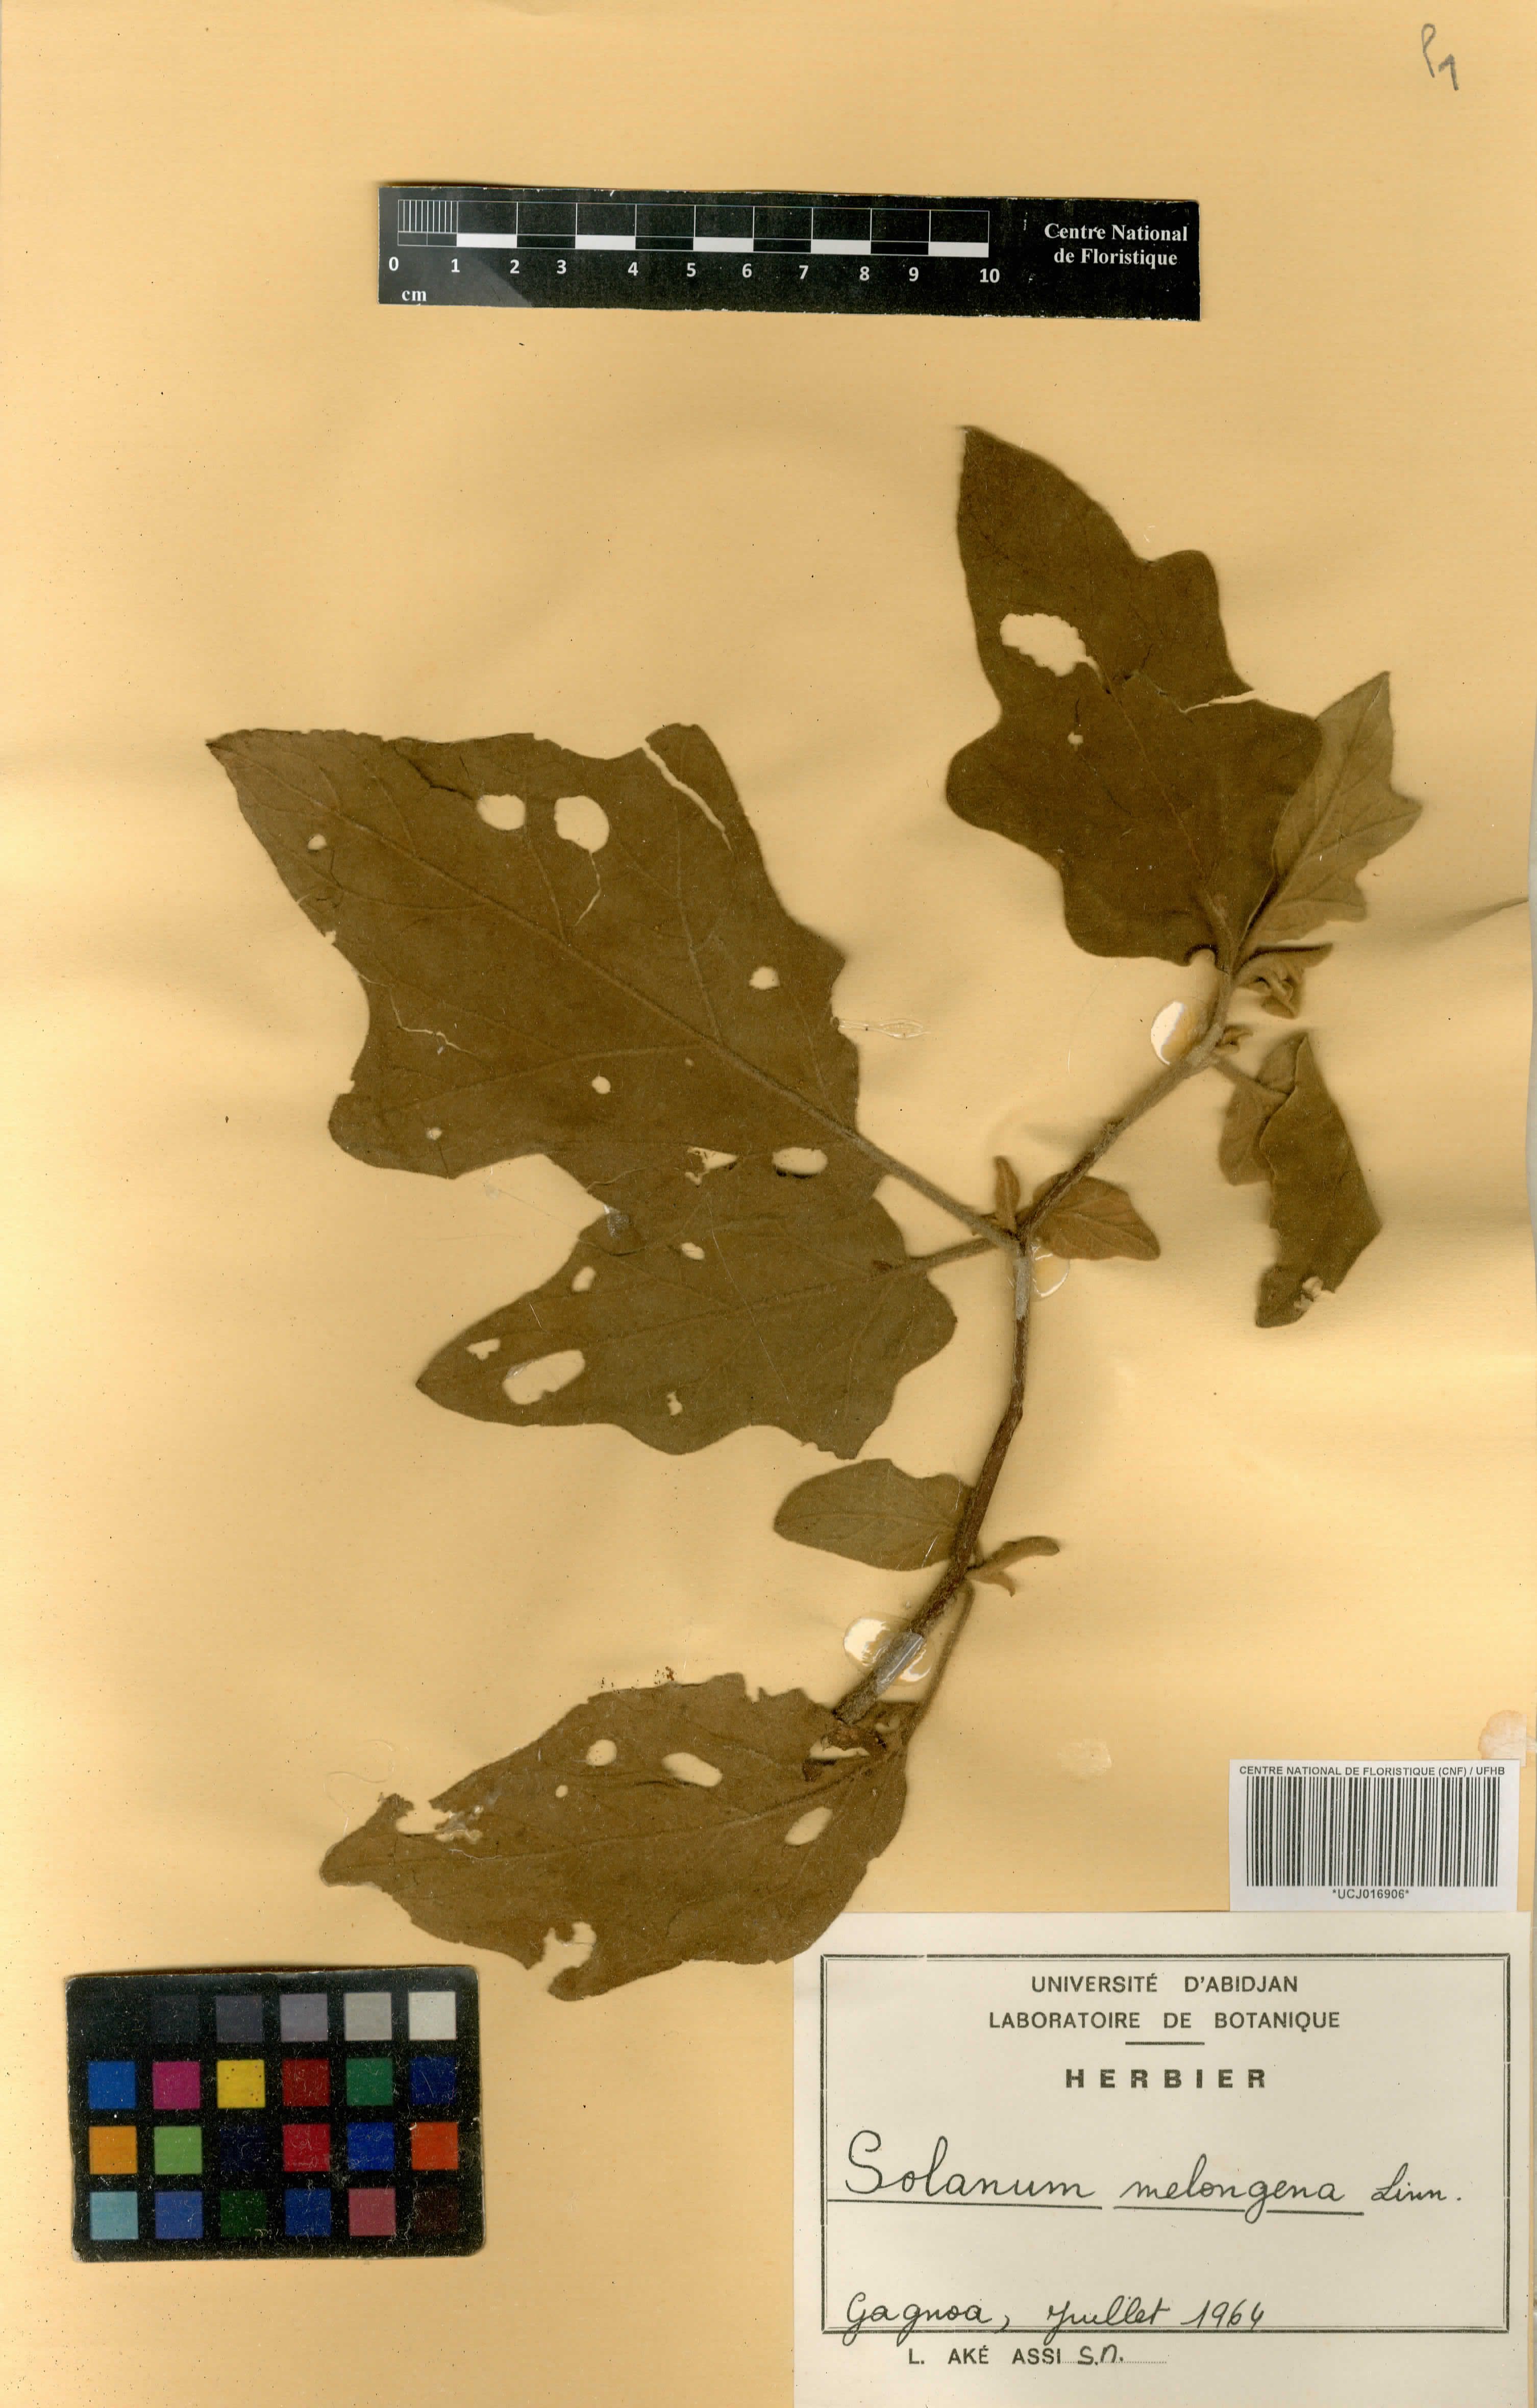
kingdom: Plantae
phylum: Tracheophyta
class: Magnoliopsida
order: Solanales
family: Solanaceae
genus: Solanum
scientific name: Solanum mauritianum
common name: Earleaf nightshade
